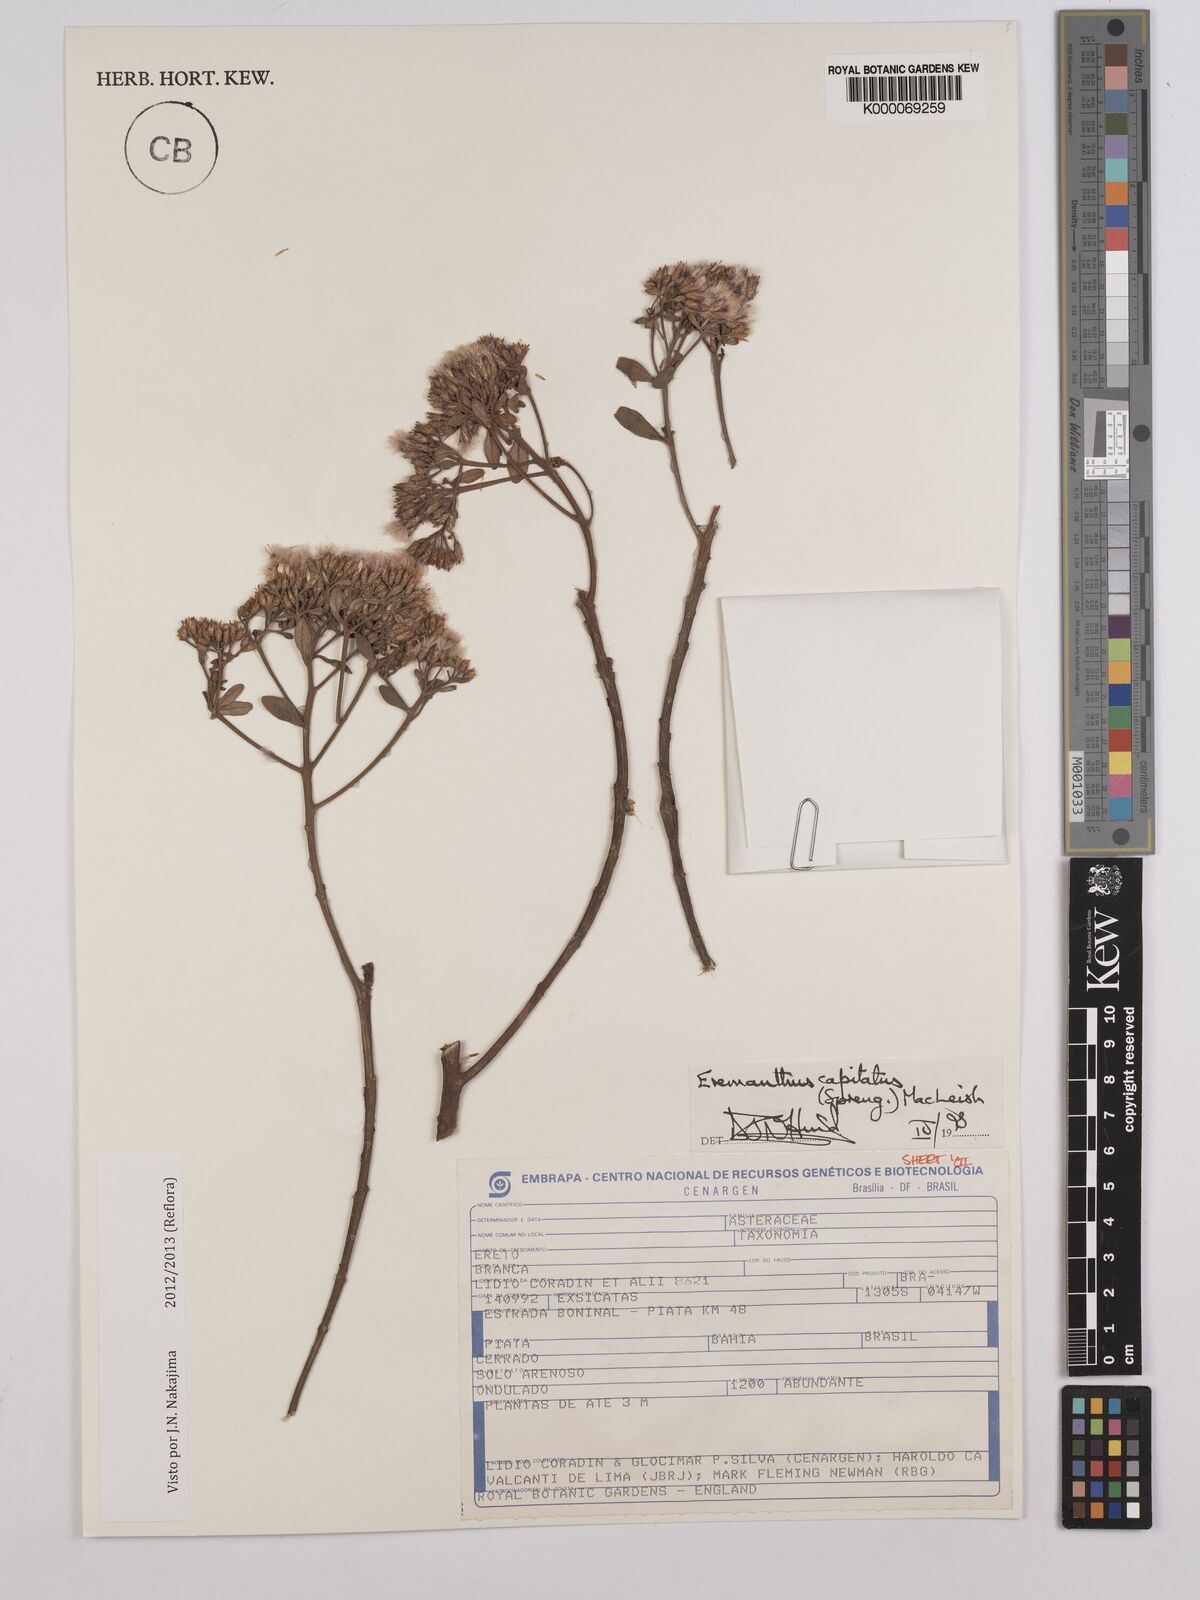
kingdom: Plantae
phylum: Tracheophyta
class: Magnoliopsida
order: Asterales
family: Asteraceae
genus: Eremanthus
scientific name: Eremanthus capitatus
